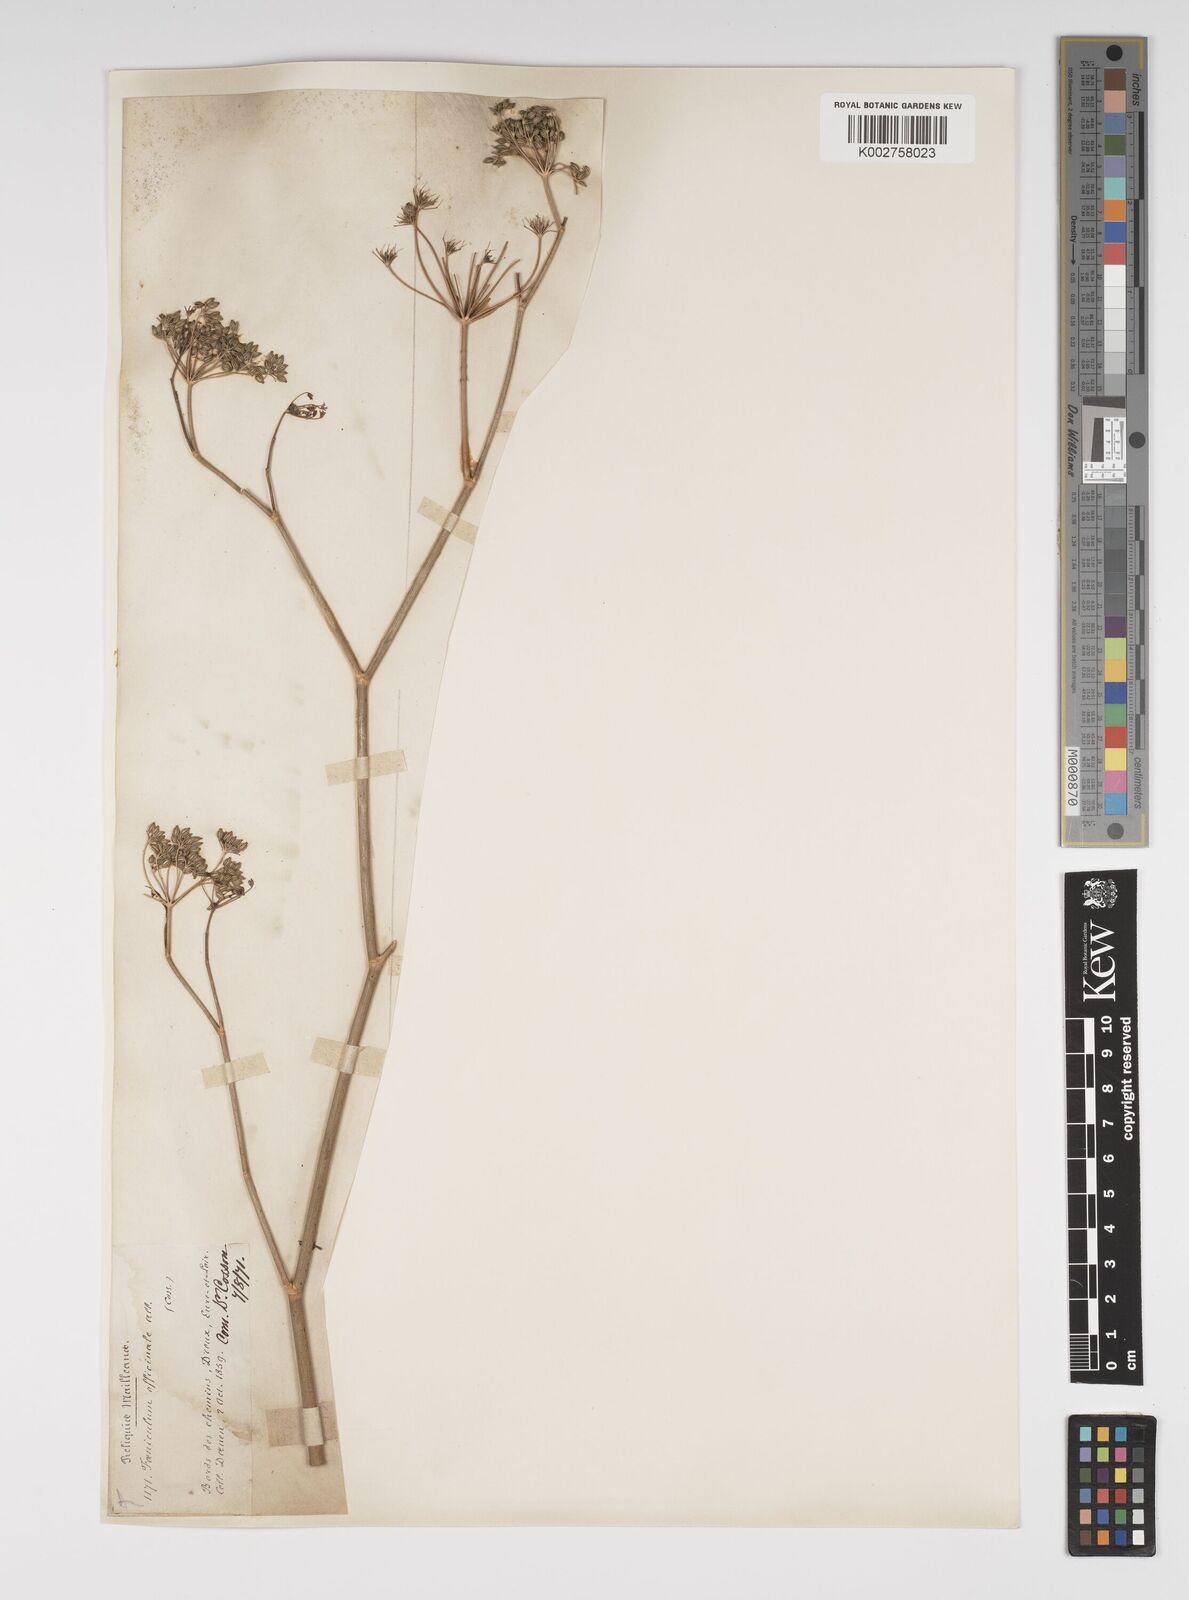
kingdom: Plantae
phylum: Tracheophyta
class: Magnoliopsida
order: Apiales
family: Apiaceae
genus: Foeniculum
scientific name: Foeniculum vulgare
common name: Fennel
